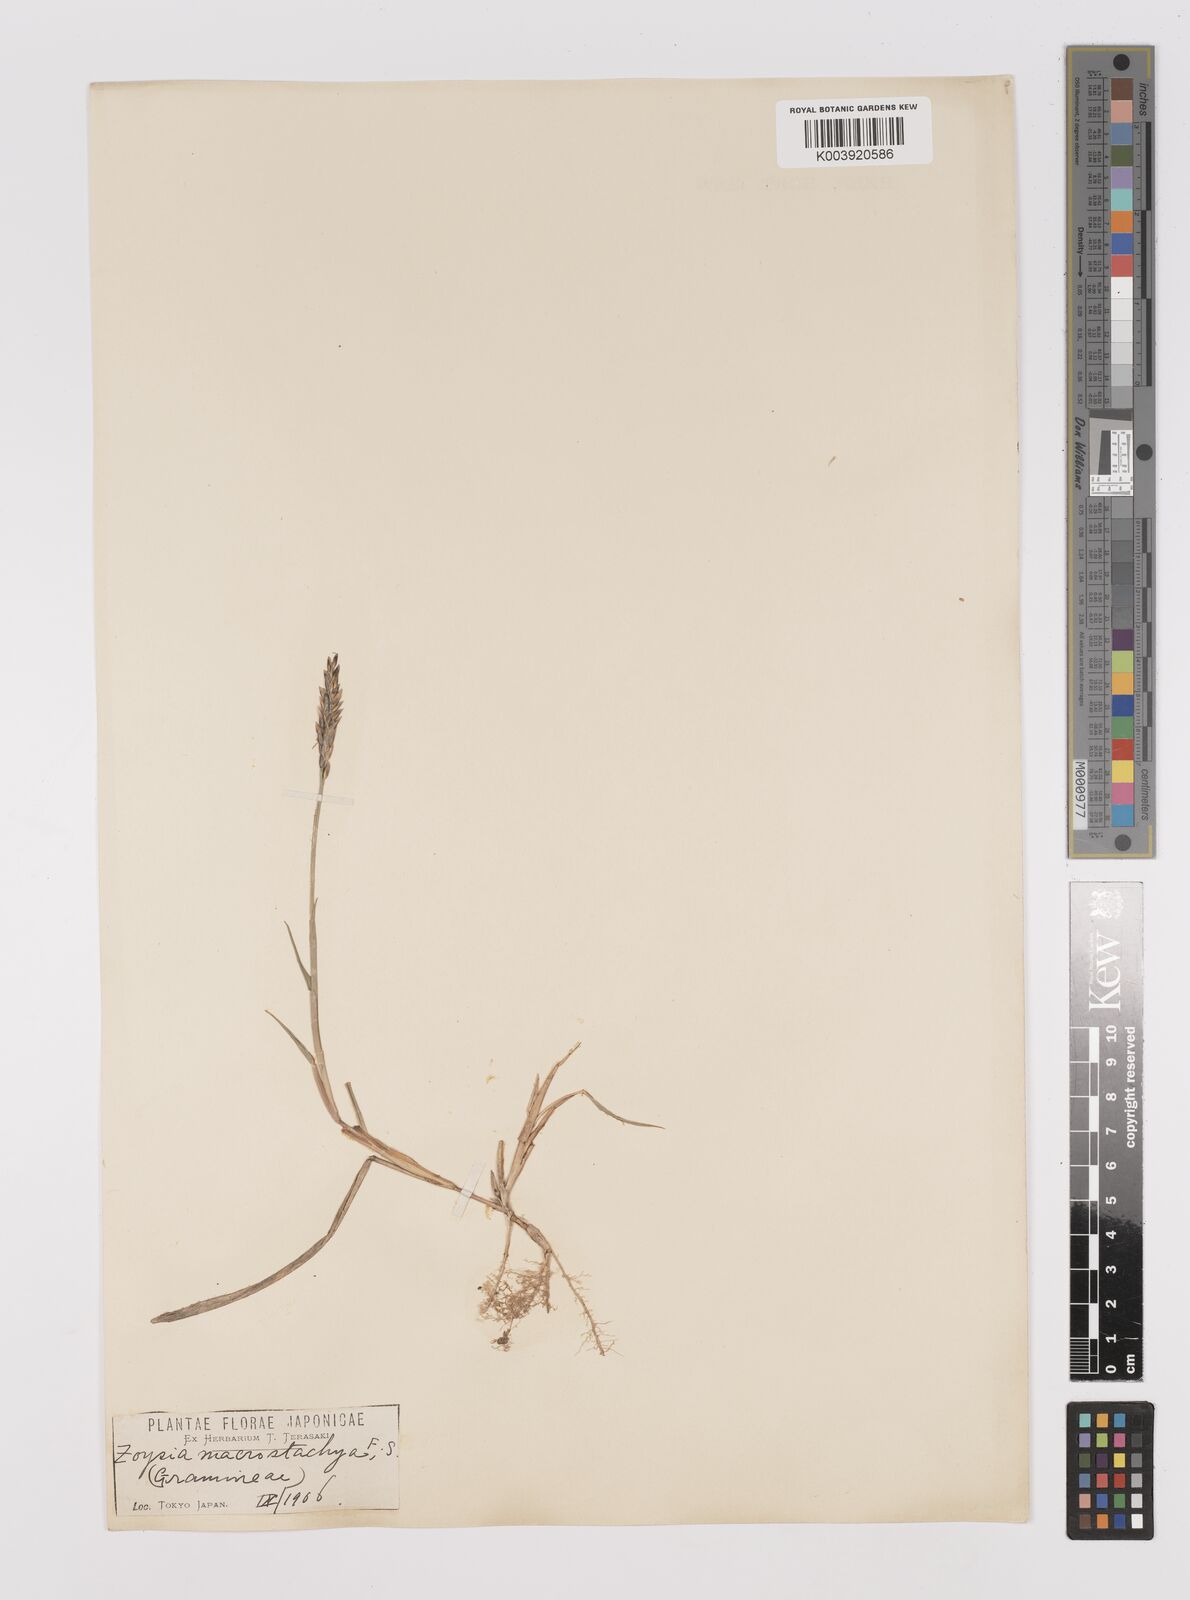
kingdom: Plantae
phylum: Tracheophyta
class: Liliopsida
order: Poales
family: Poaceae
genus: Zoysia
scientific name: Zoysia macrostachya
